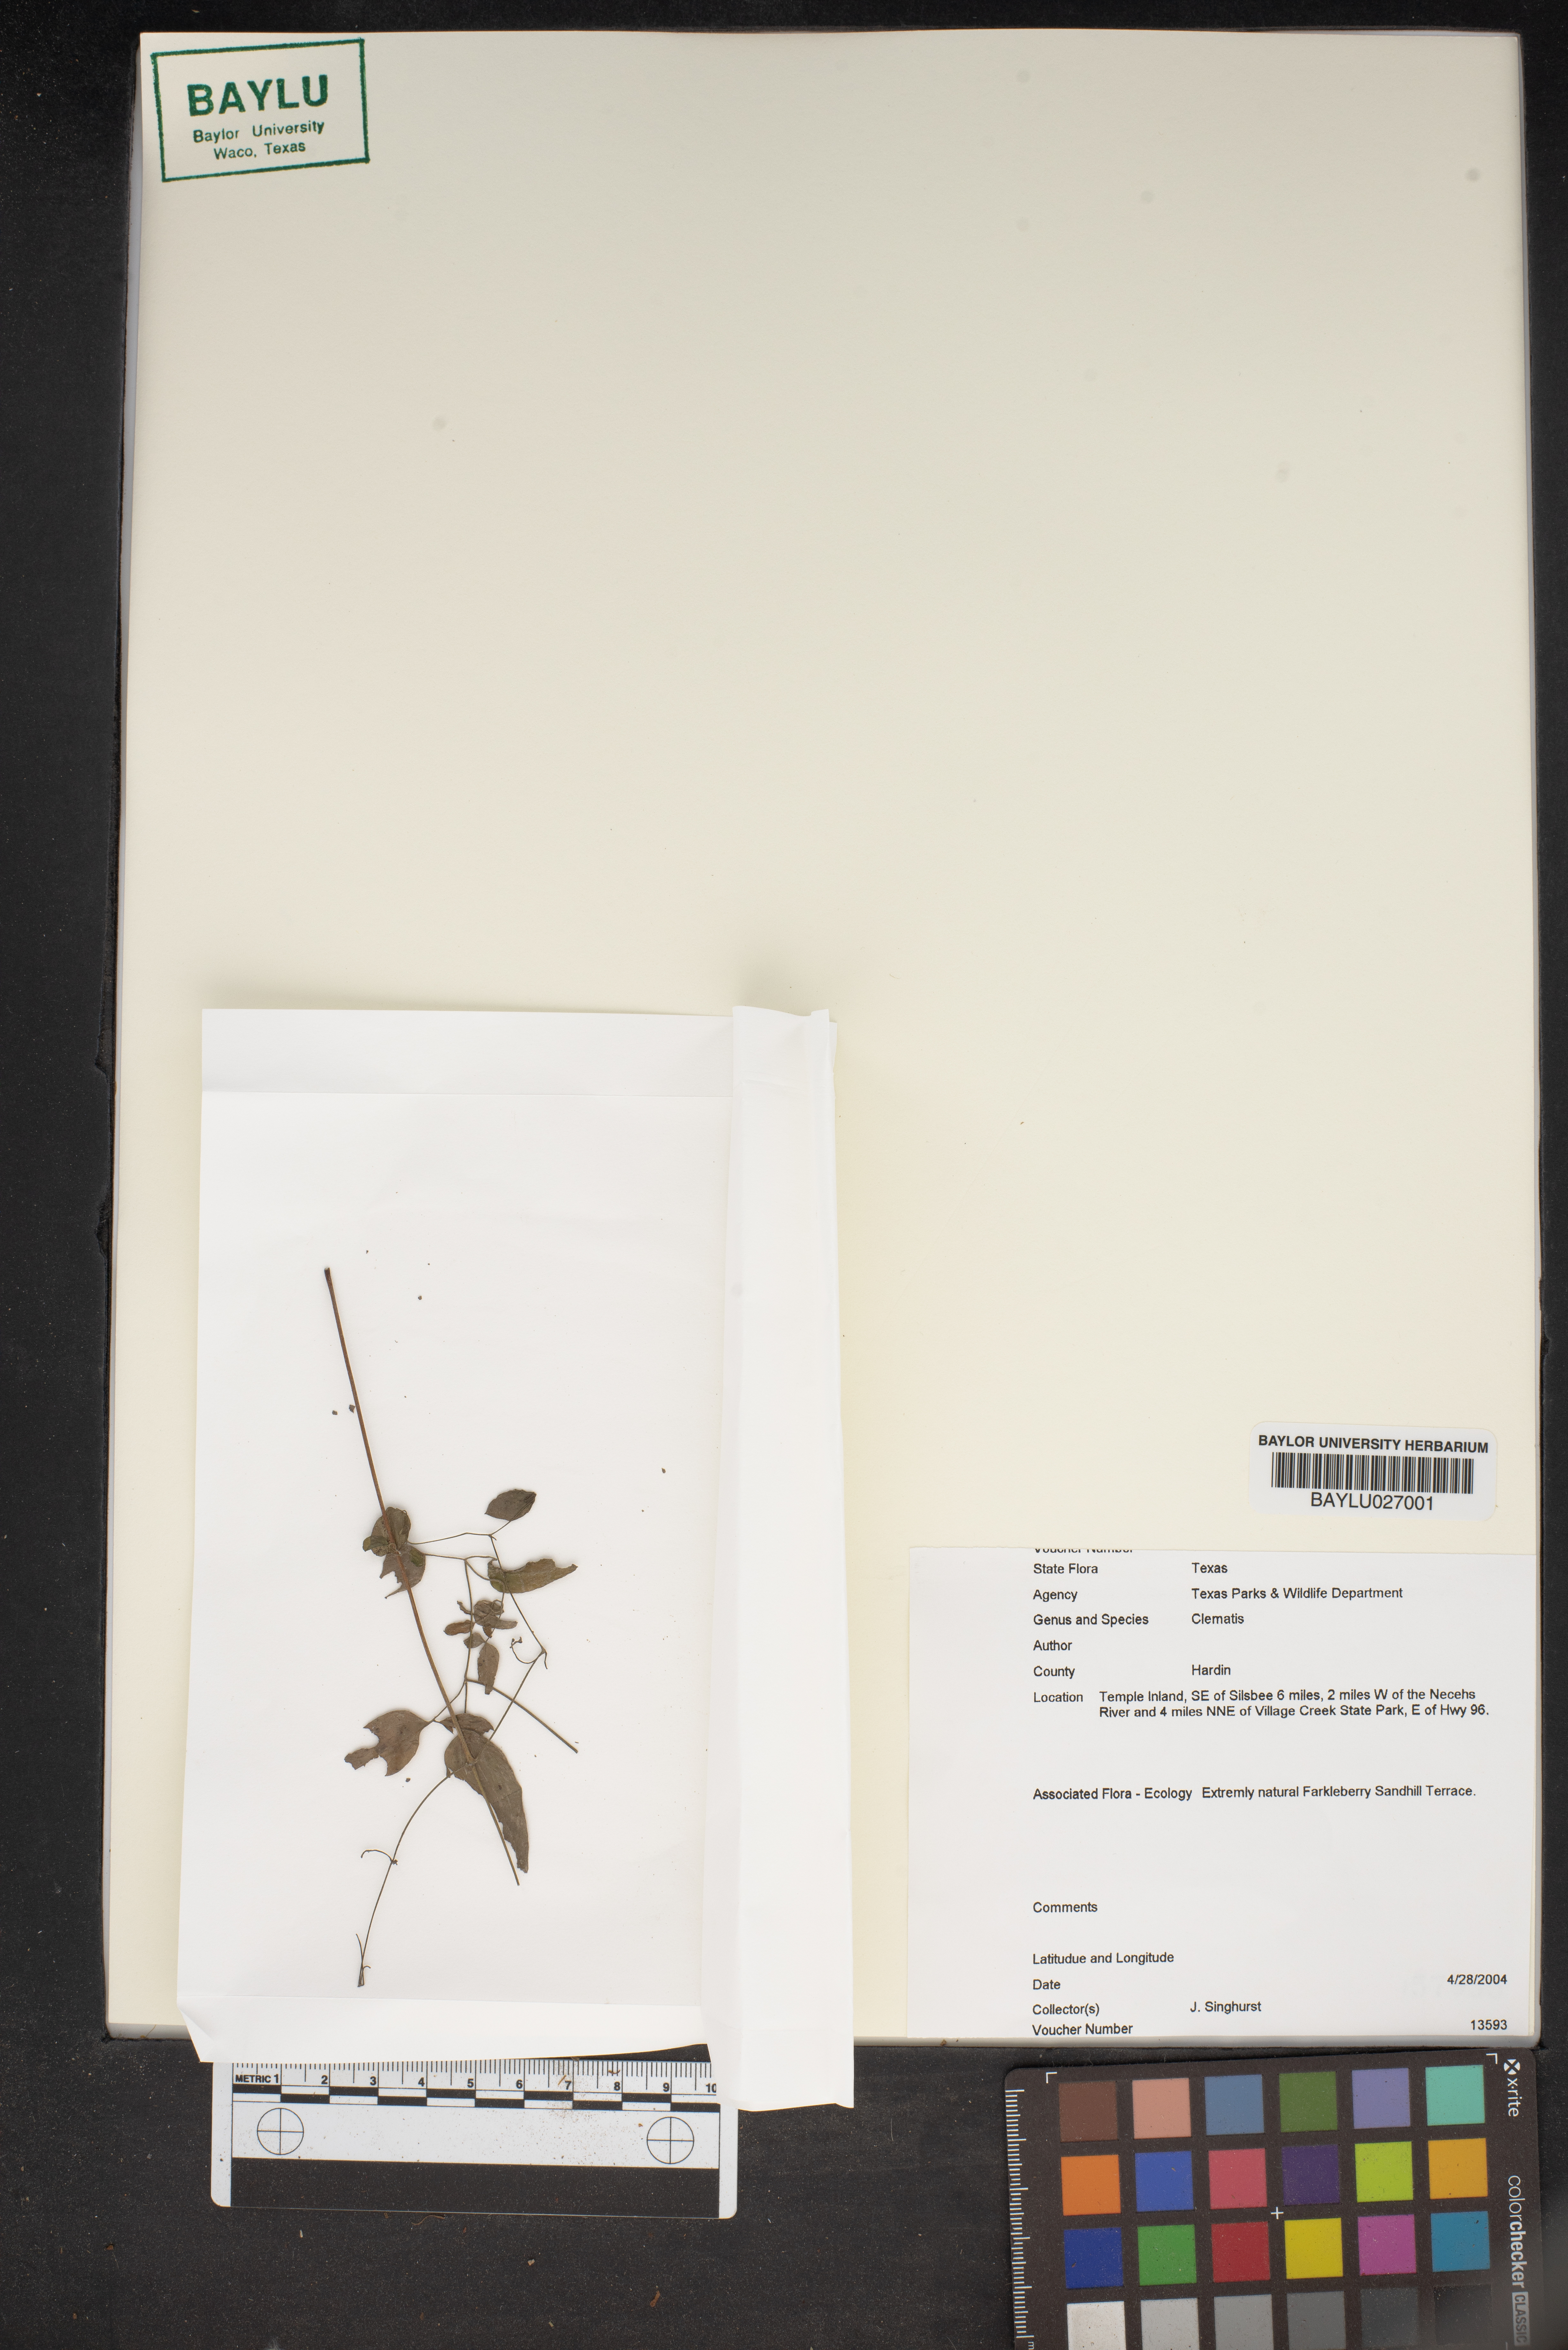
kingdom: Plantae
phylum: Tracheophyta
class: Magnoliopsida
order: Ranunculales
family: Ranunculaceae
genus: Clematis
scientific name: Clematis
